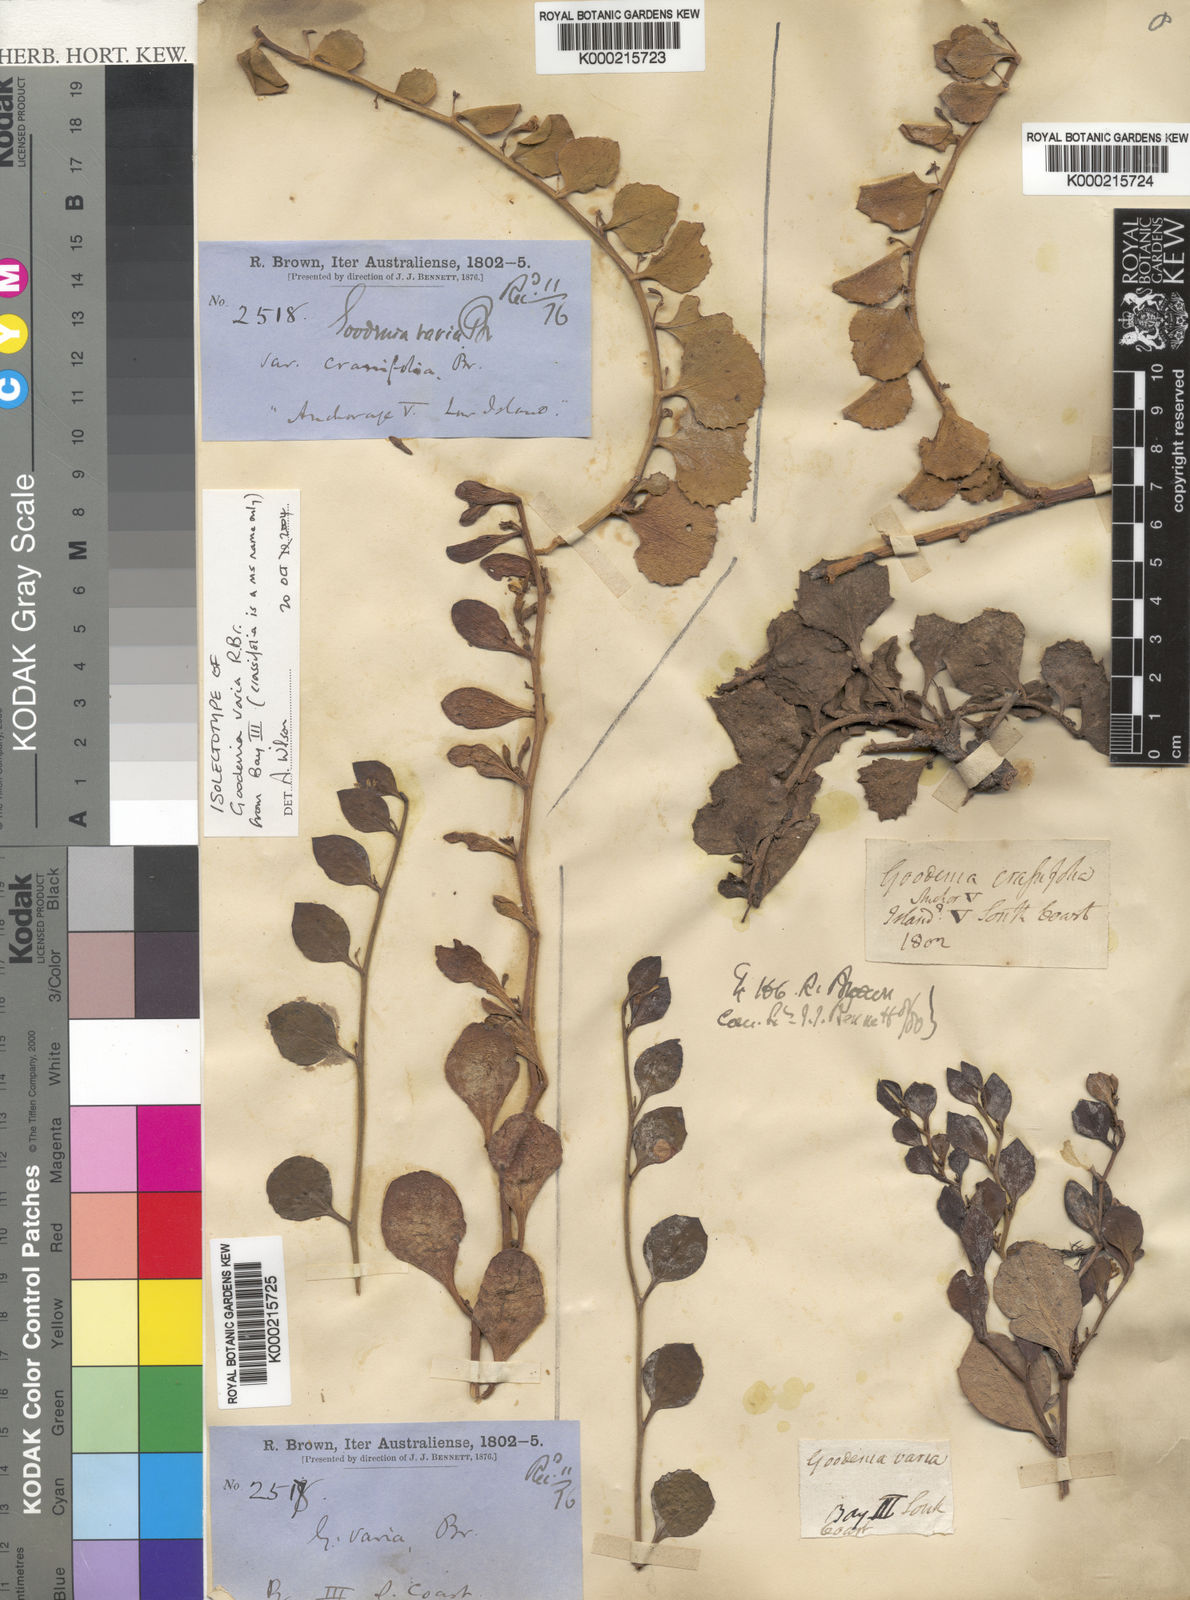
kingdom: Plantae
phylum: Tracheophyta
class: Magnoliopsida
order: Asterales
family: Goodeniaceae
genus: Goodenia
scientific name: Goodenia varia
